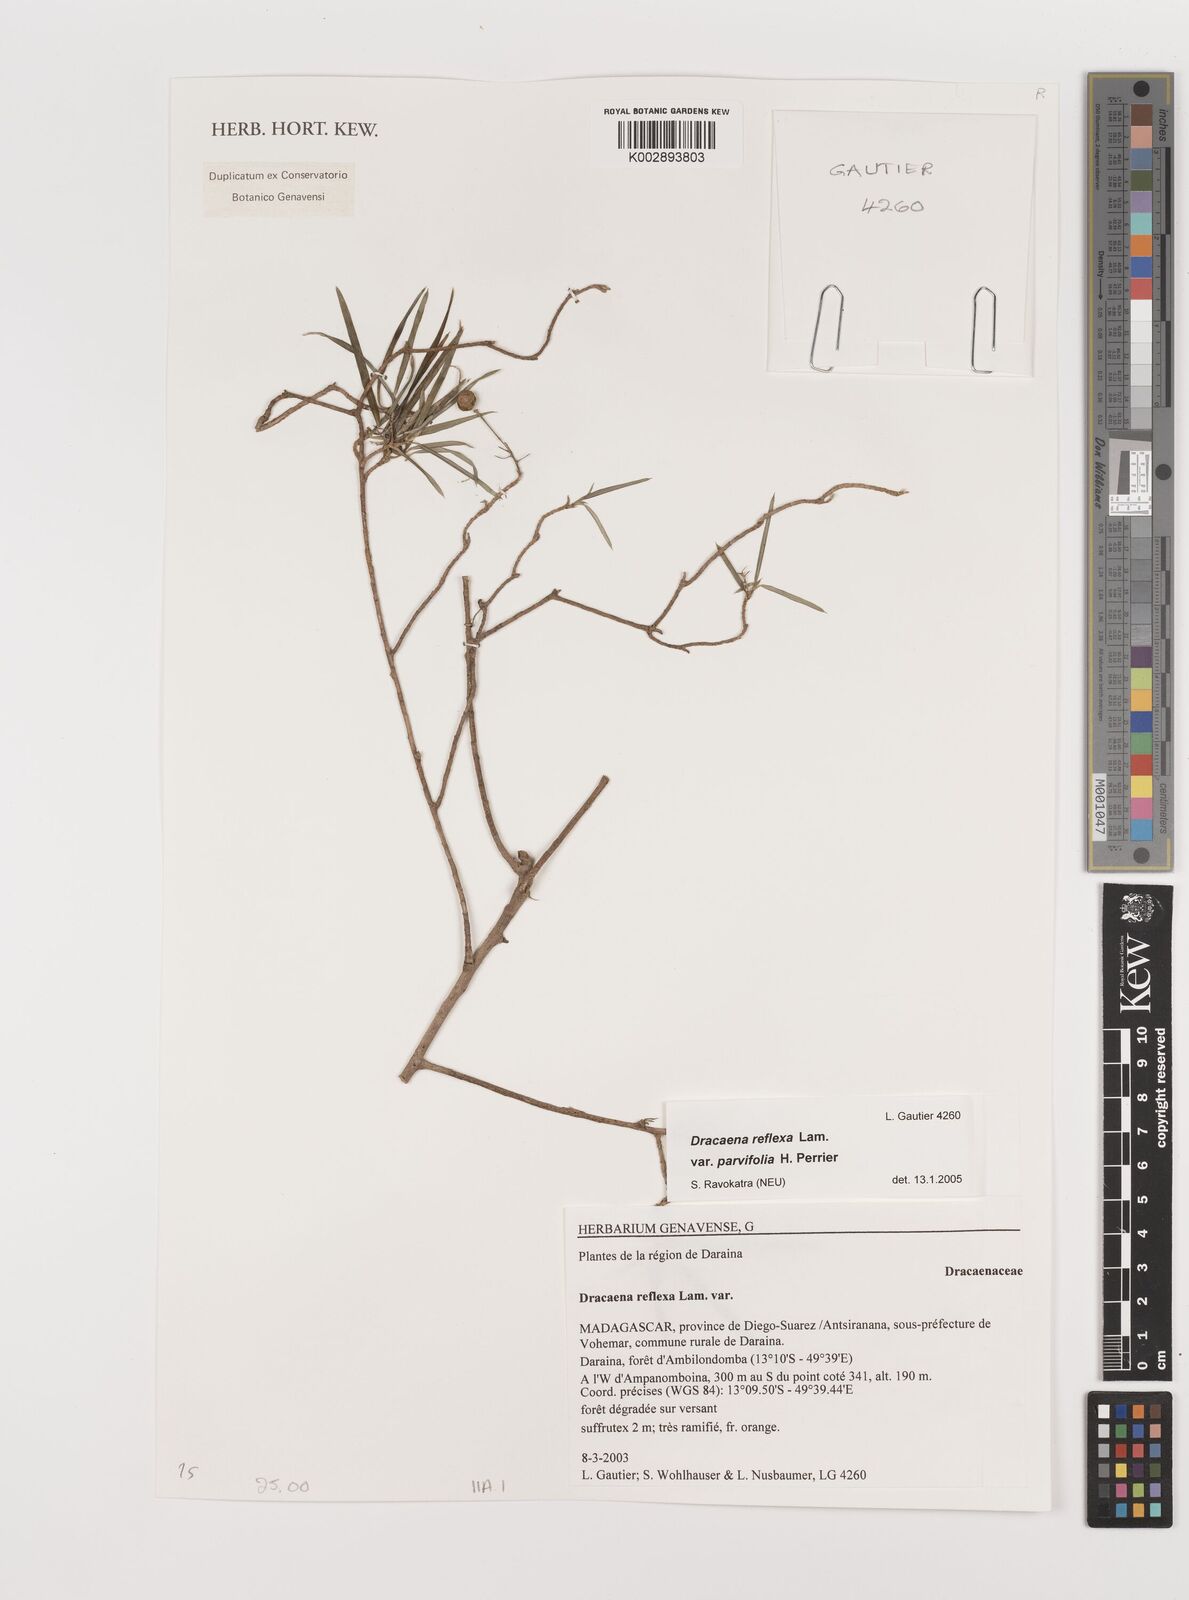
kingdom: Plantae
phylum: Tracheophyta
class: Liliopsida
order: Asparagales
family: Asparagaceae
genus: Dracaena
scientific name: Dracaena reflexa
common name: Song-of-india
